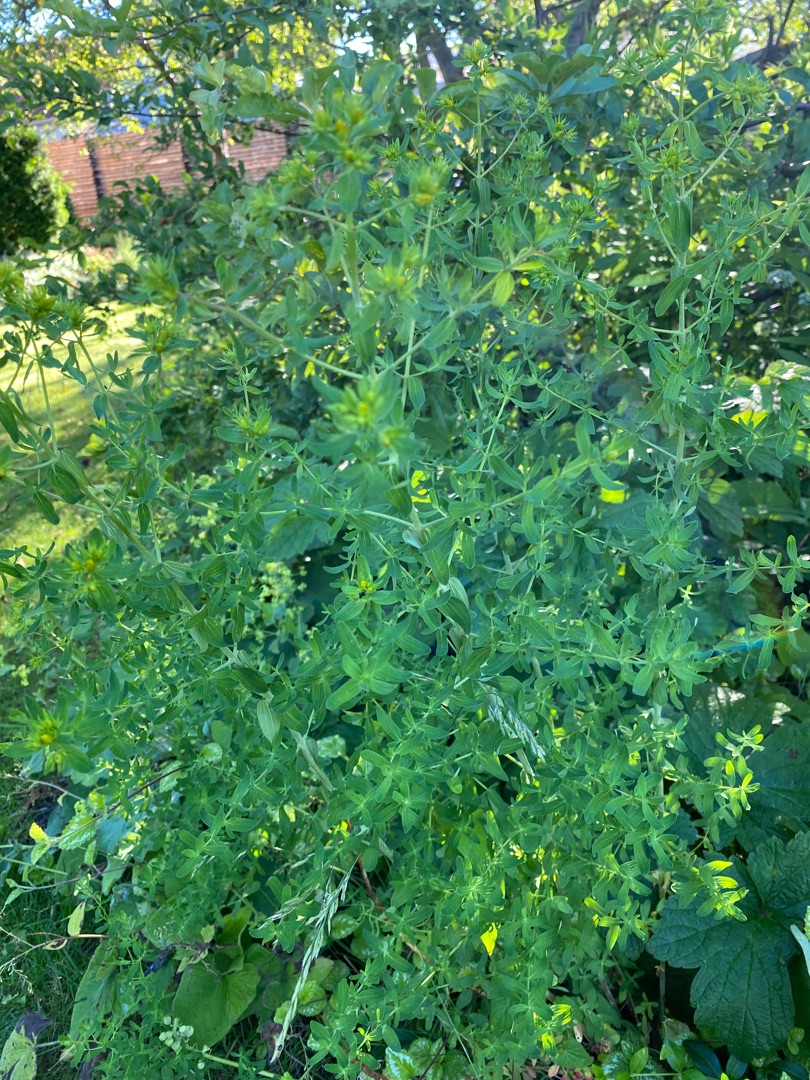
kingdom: Plantae
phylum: Tracheophyta
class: Magnoliopsida
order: Malpighiales
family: Hypericaceae
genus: Hypericum
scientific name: Hypericum perforatum
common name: Prikbladet perikon
